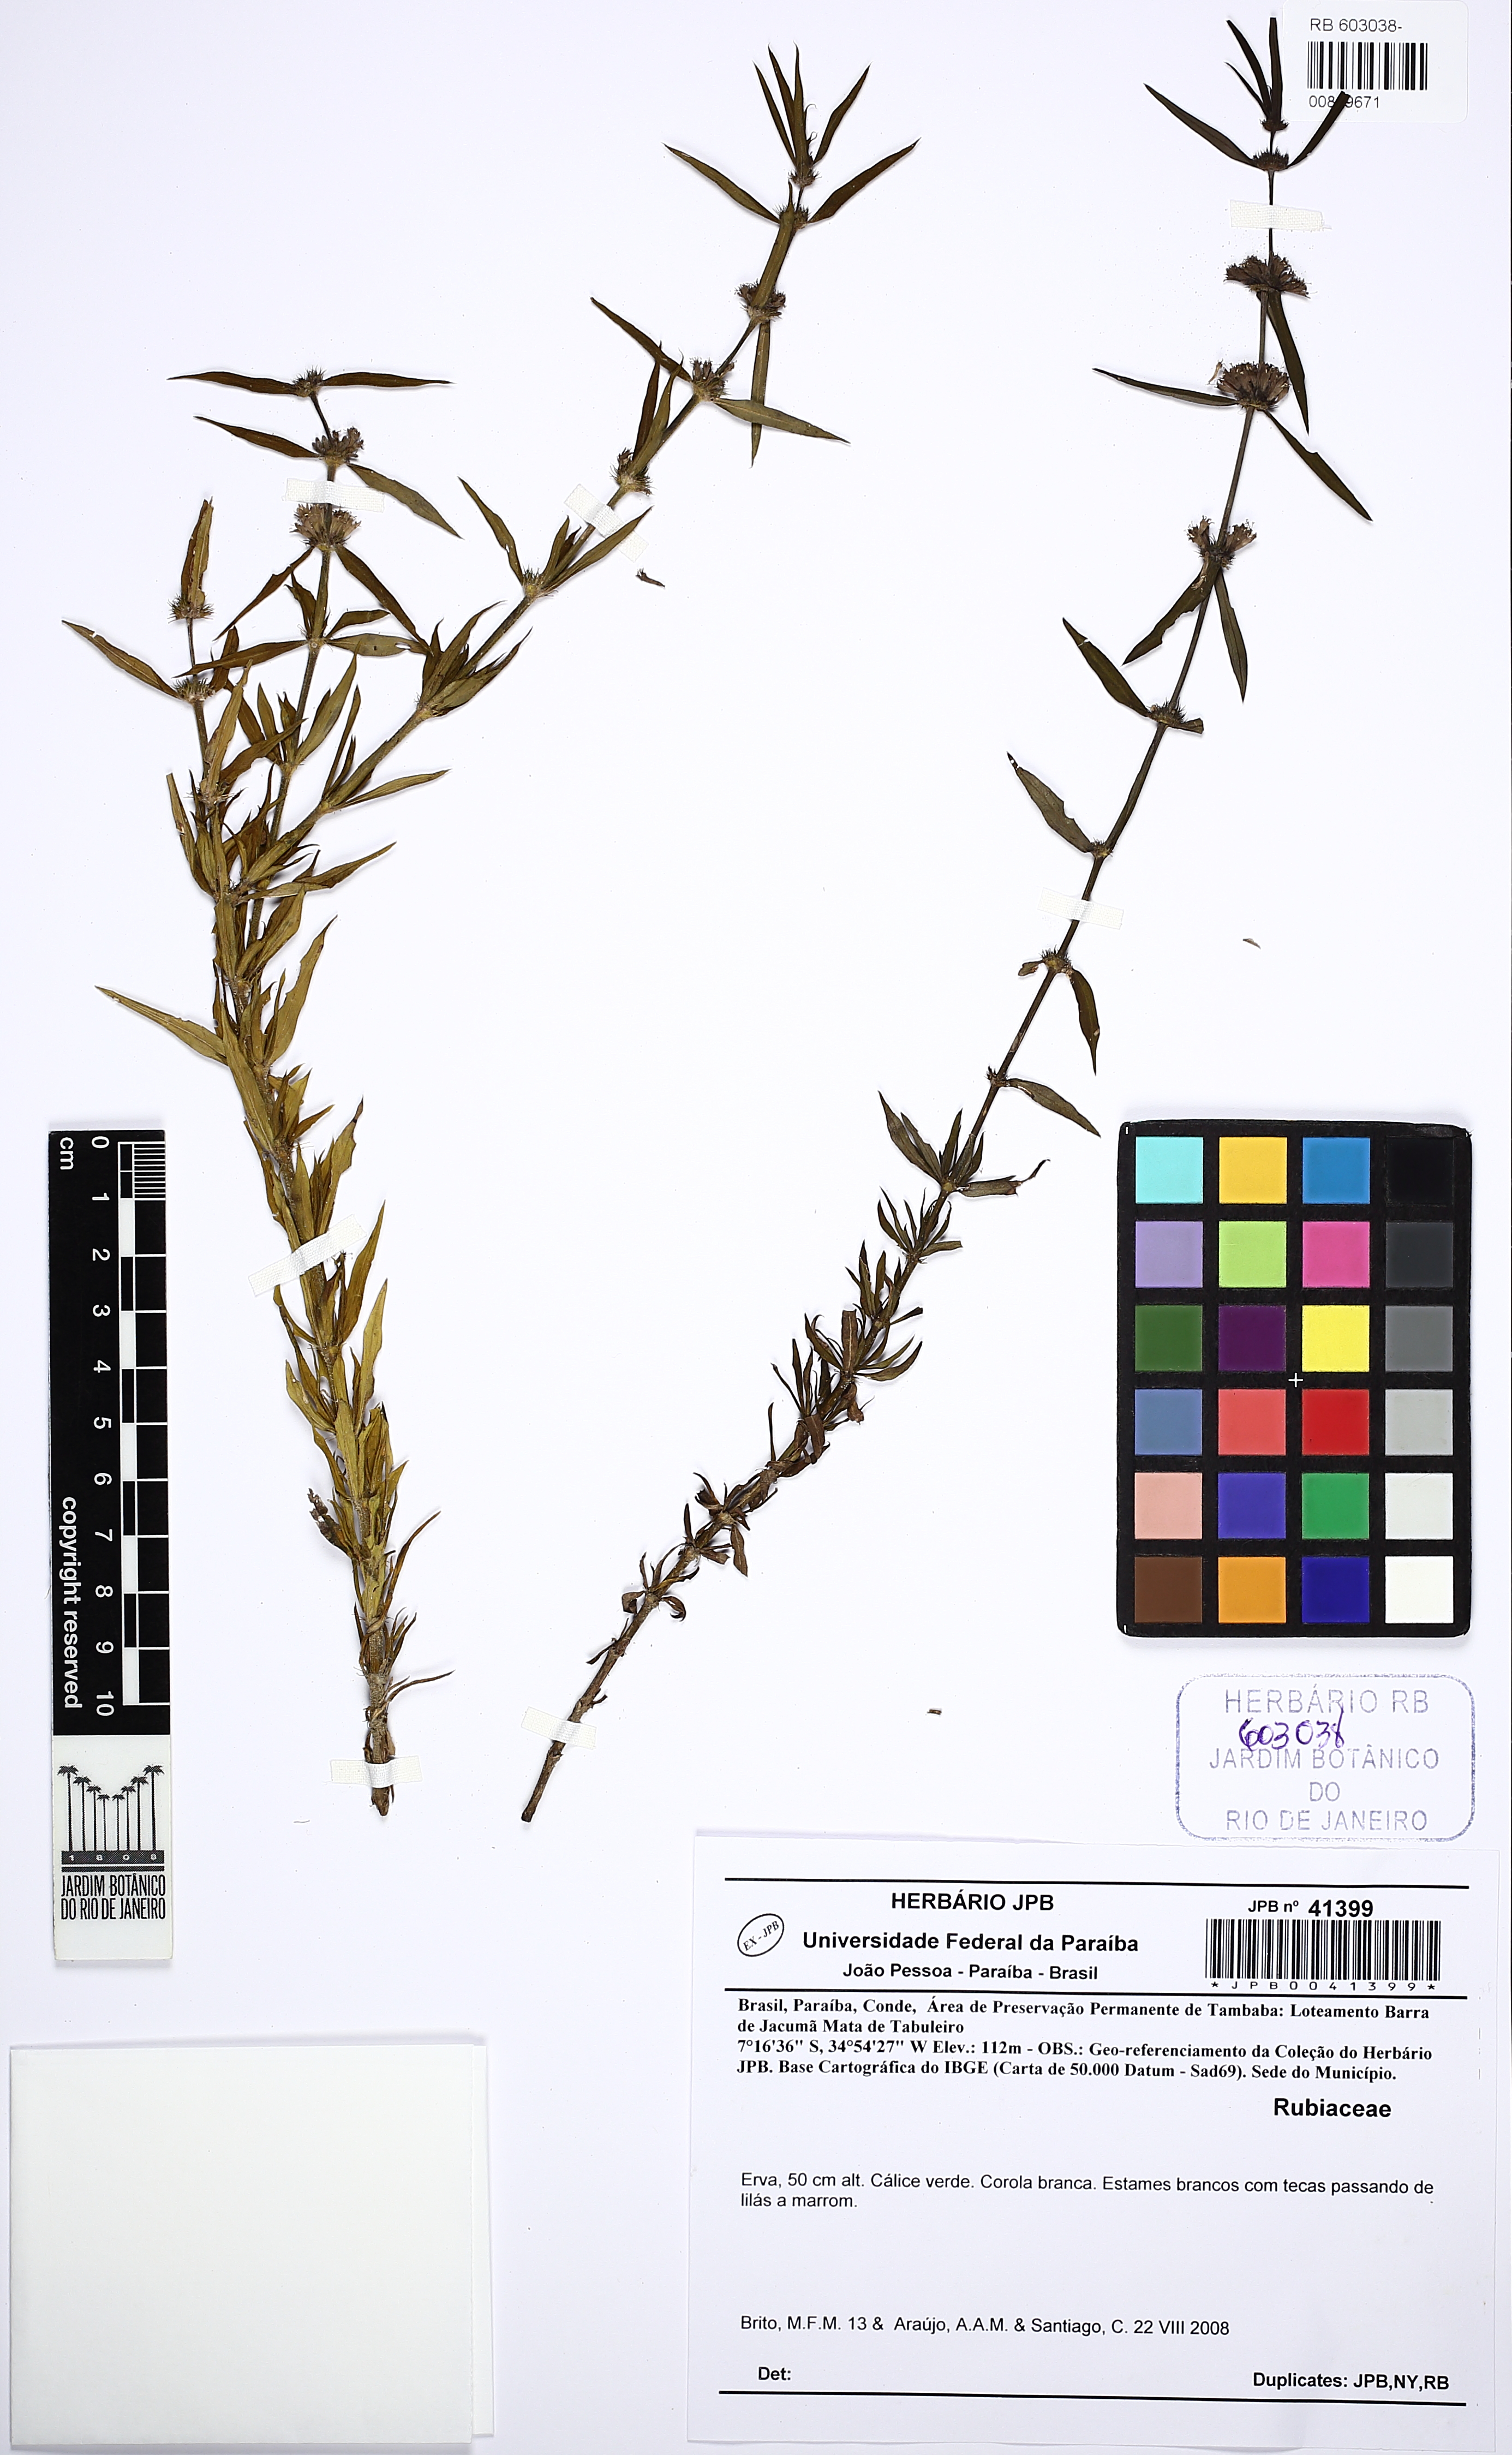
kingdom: Plantae
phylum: Tracheophyta
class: Magnoliopsida
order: Gentianales
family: Rubiaceae
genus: Staelia
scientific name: Staelia virgata
